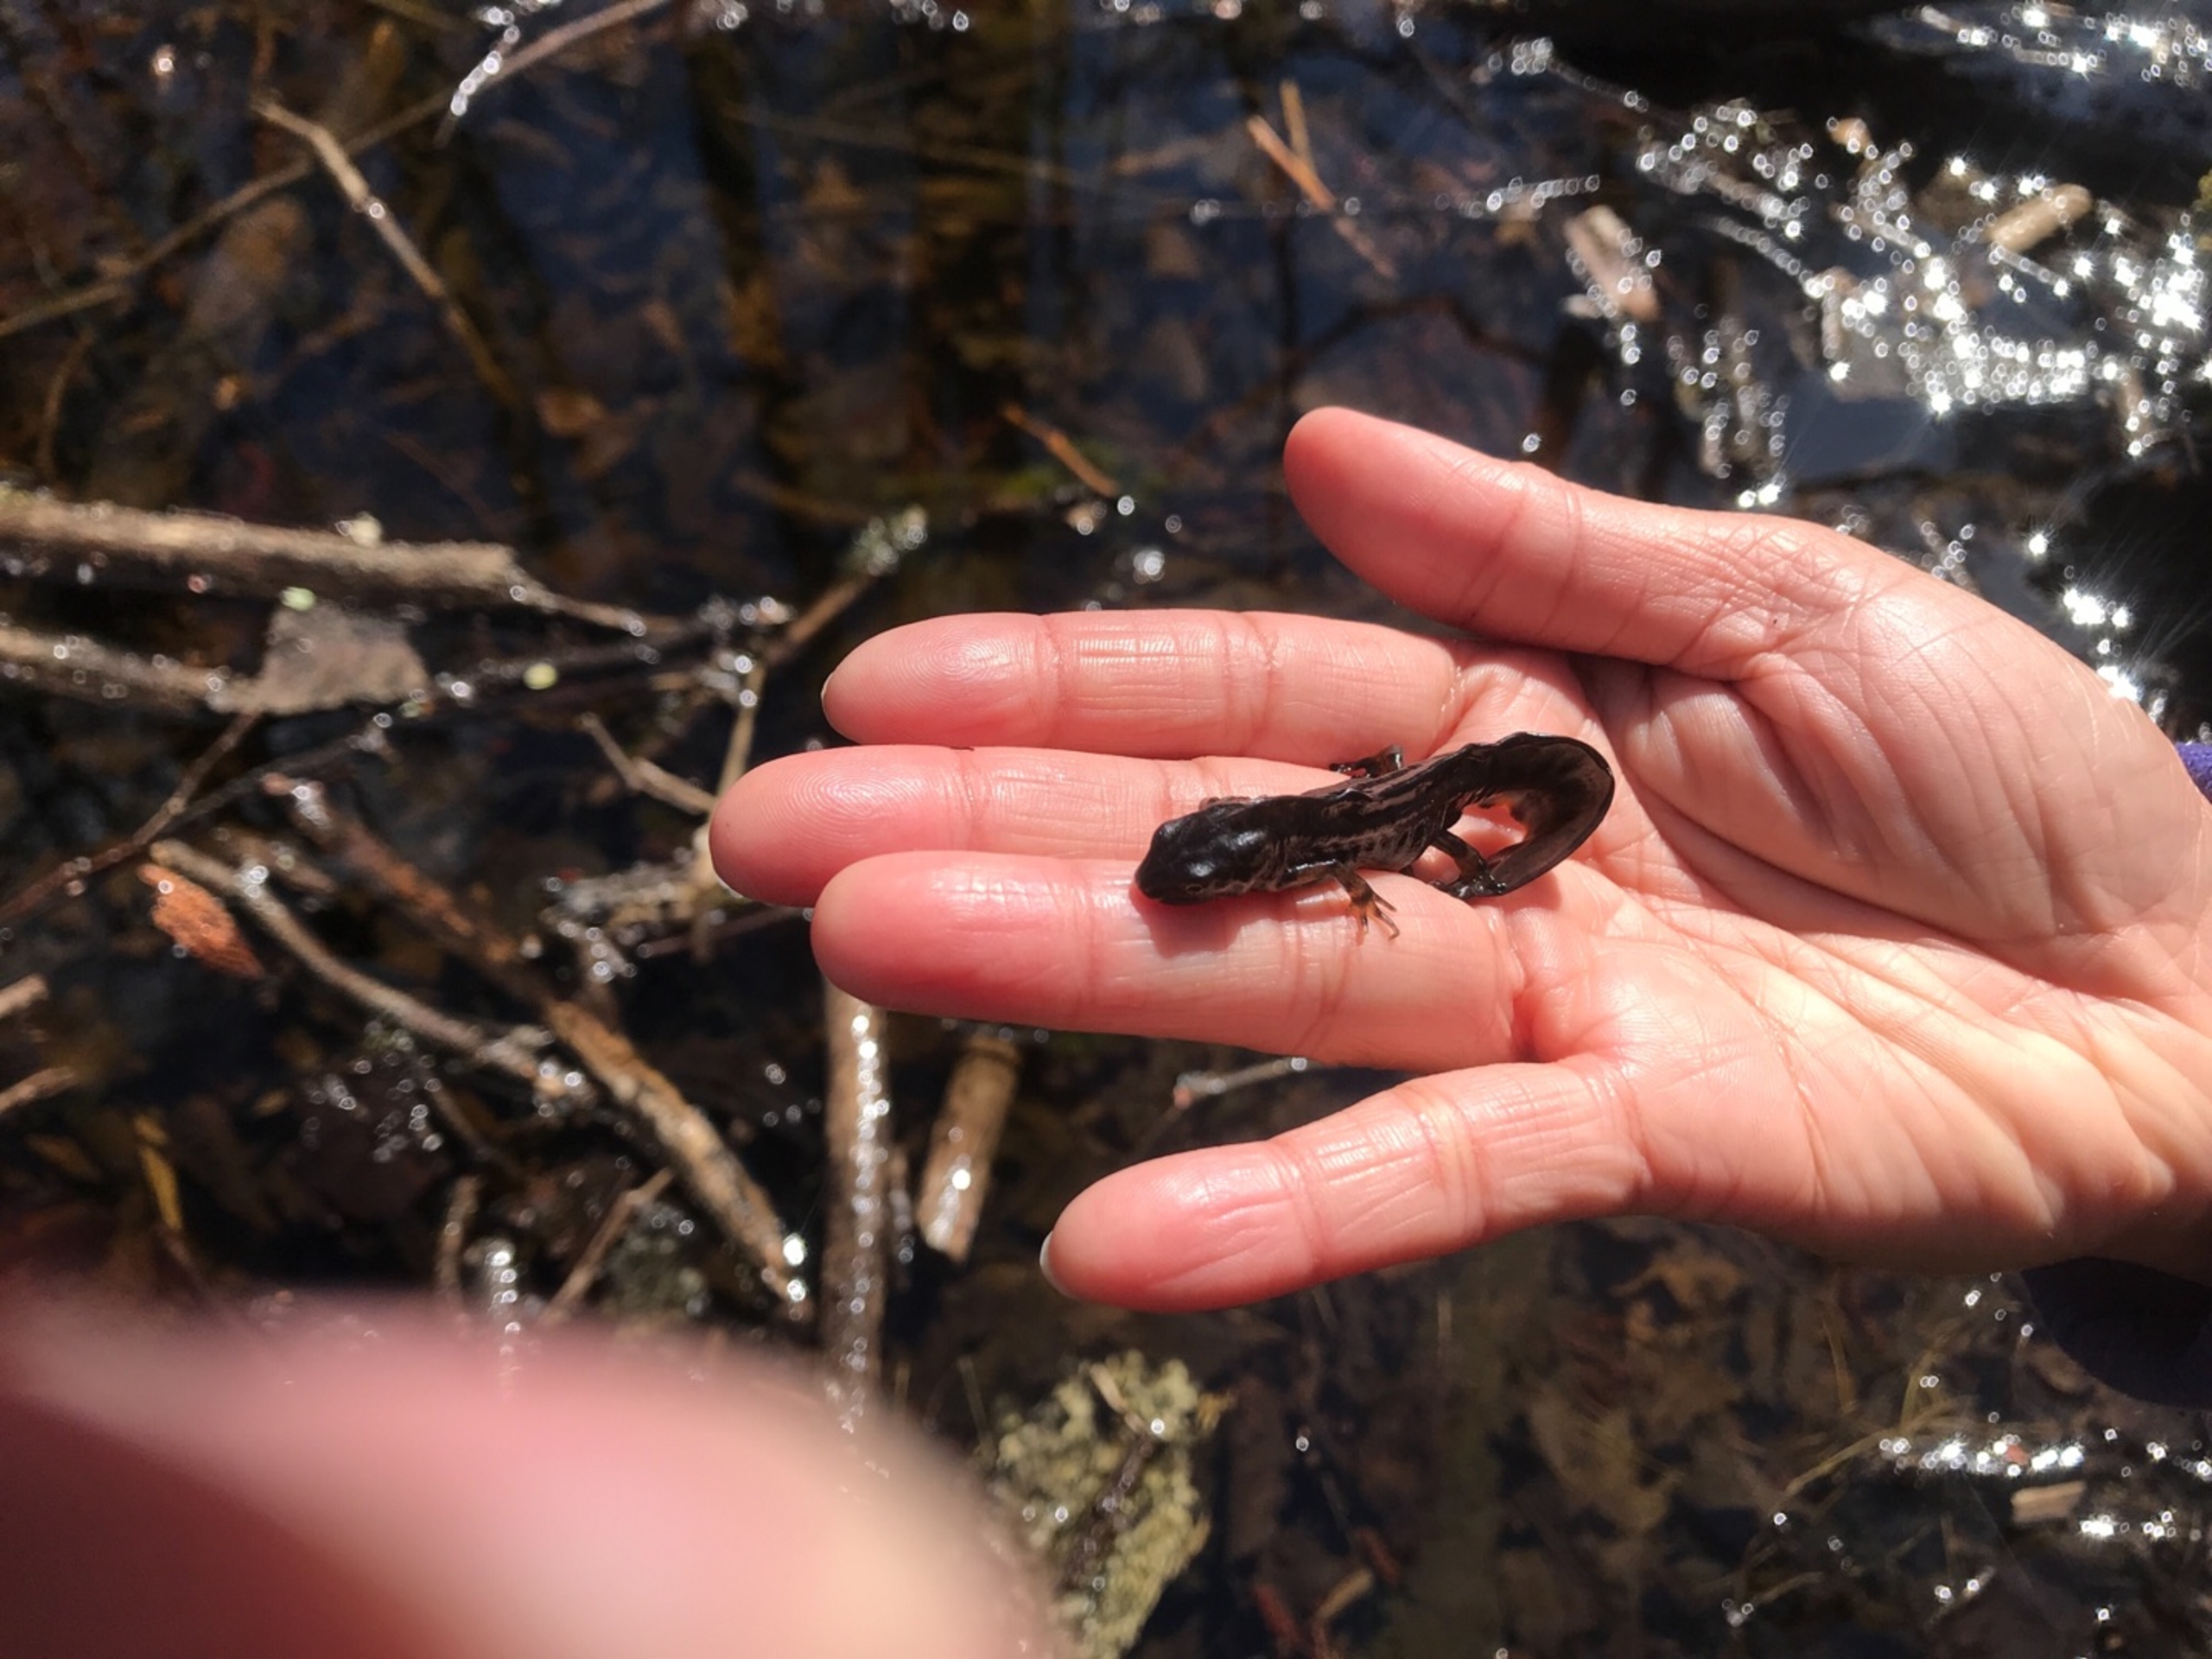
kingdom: Animalia
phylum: Chordata
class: Amphibia
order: Caudata
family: Salamandridae
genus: Lissotriton
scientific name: Lissotriton vulgaris
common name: Lille vandsalamander
